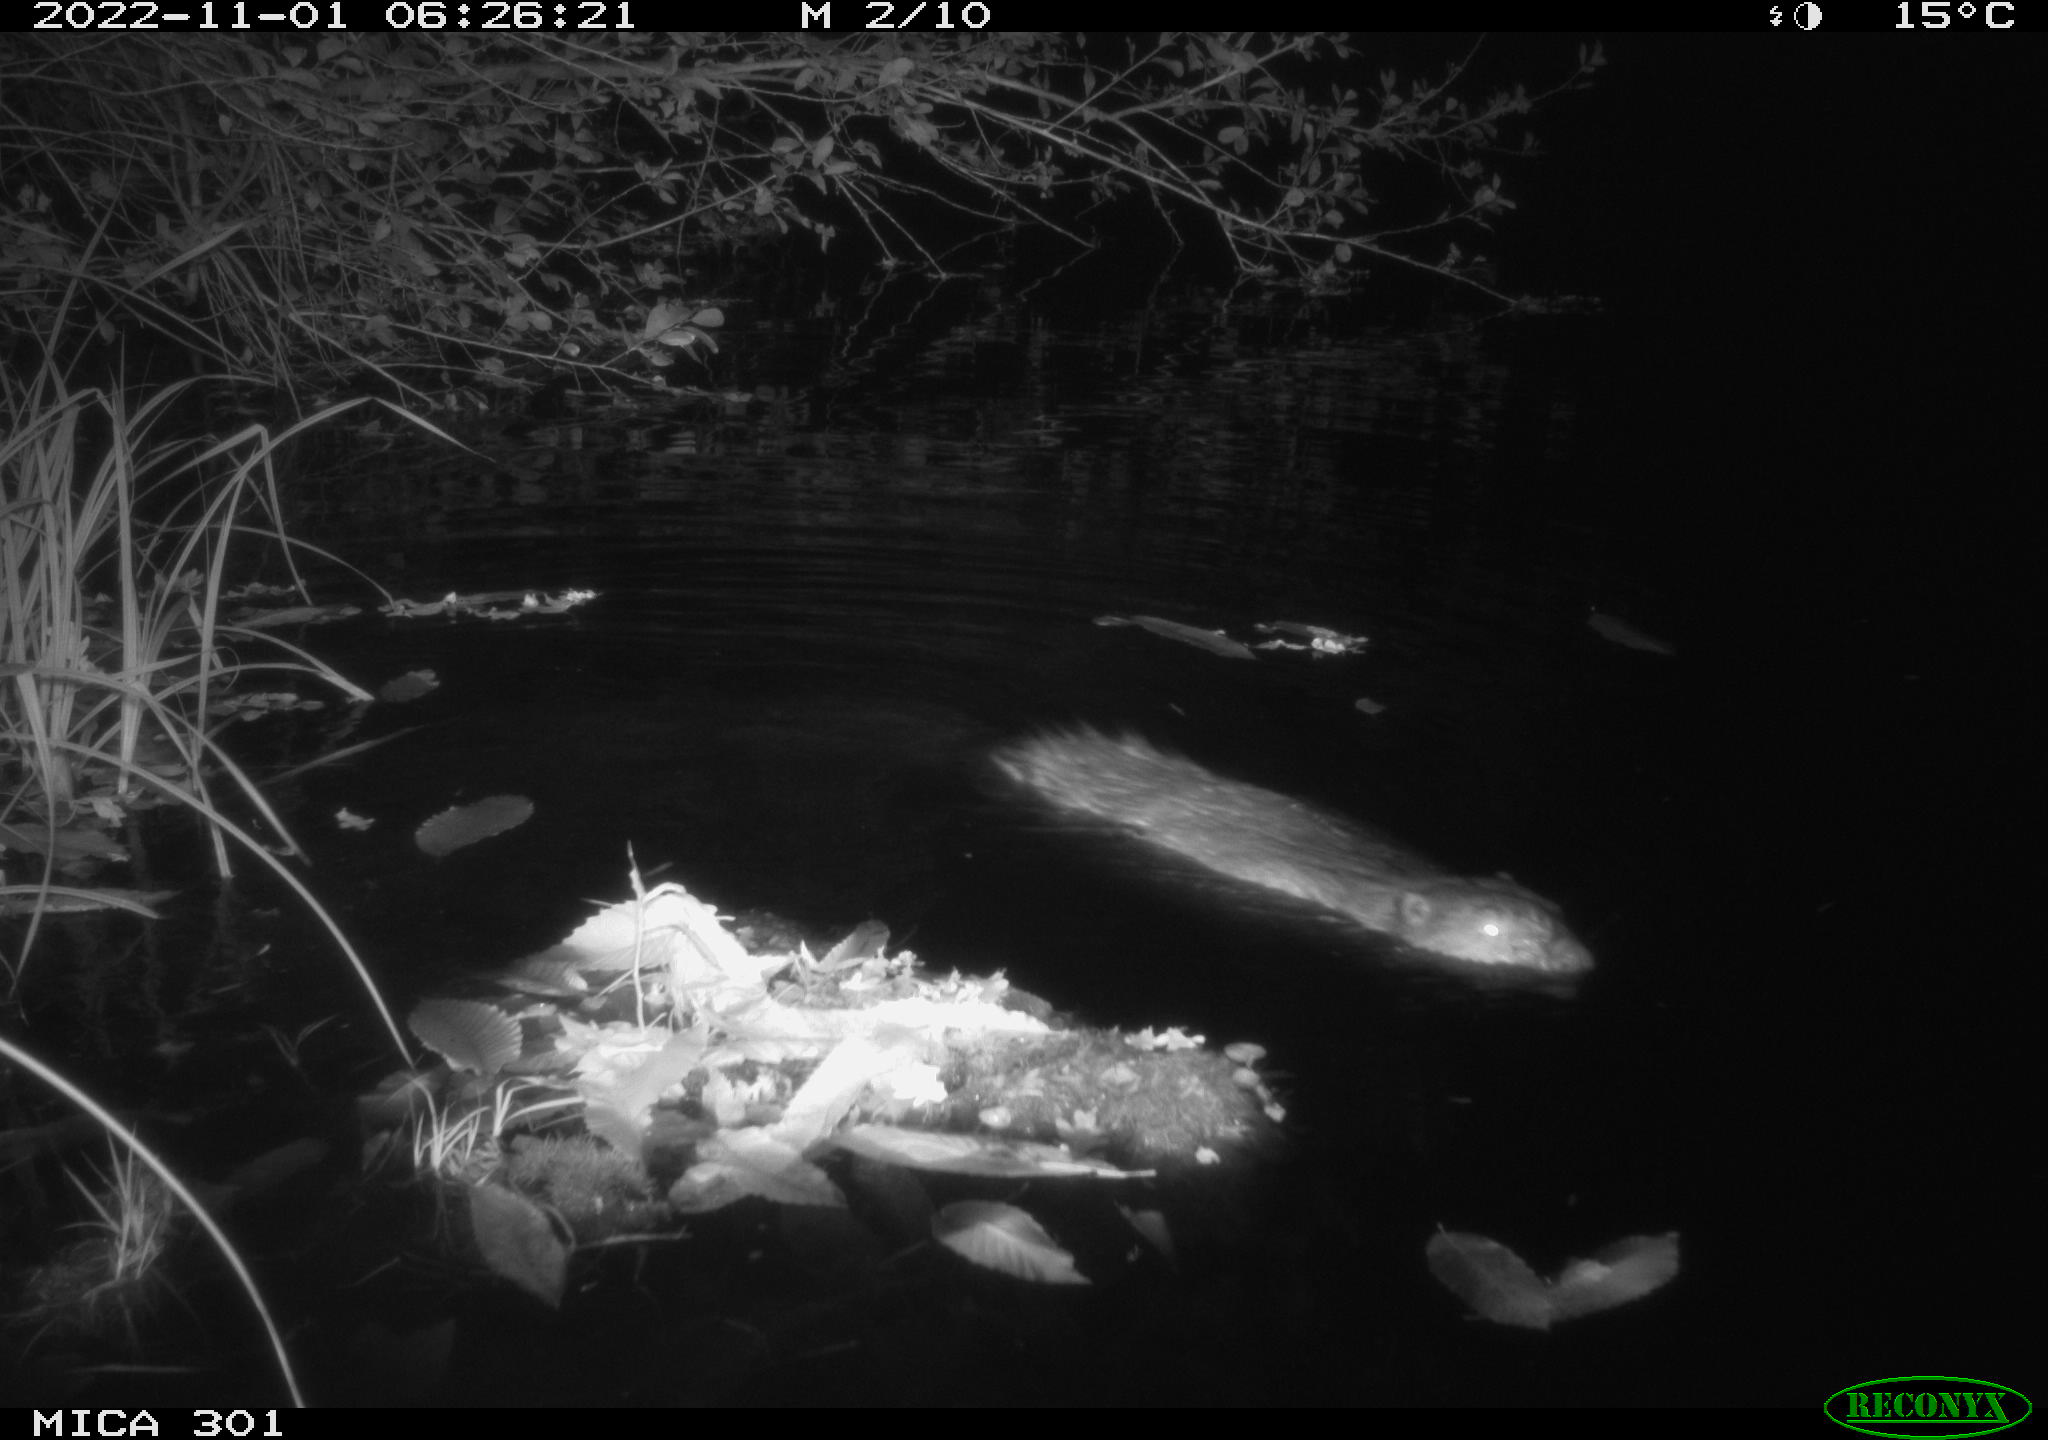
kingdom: Animalia
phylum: Chordata
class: Mammalia
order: Rodentia
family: Castoridae
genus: Castor
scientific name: Castor fiber
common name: Eurasian beaver
